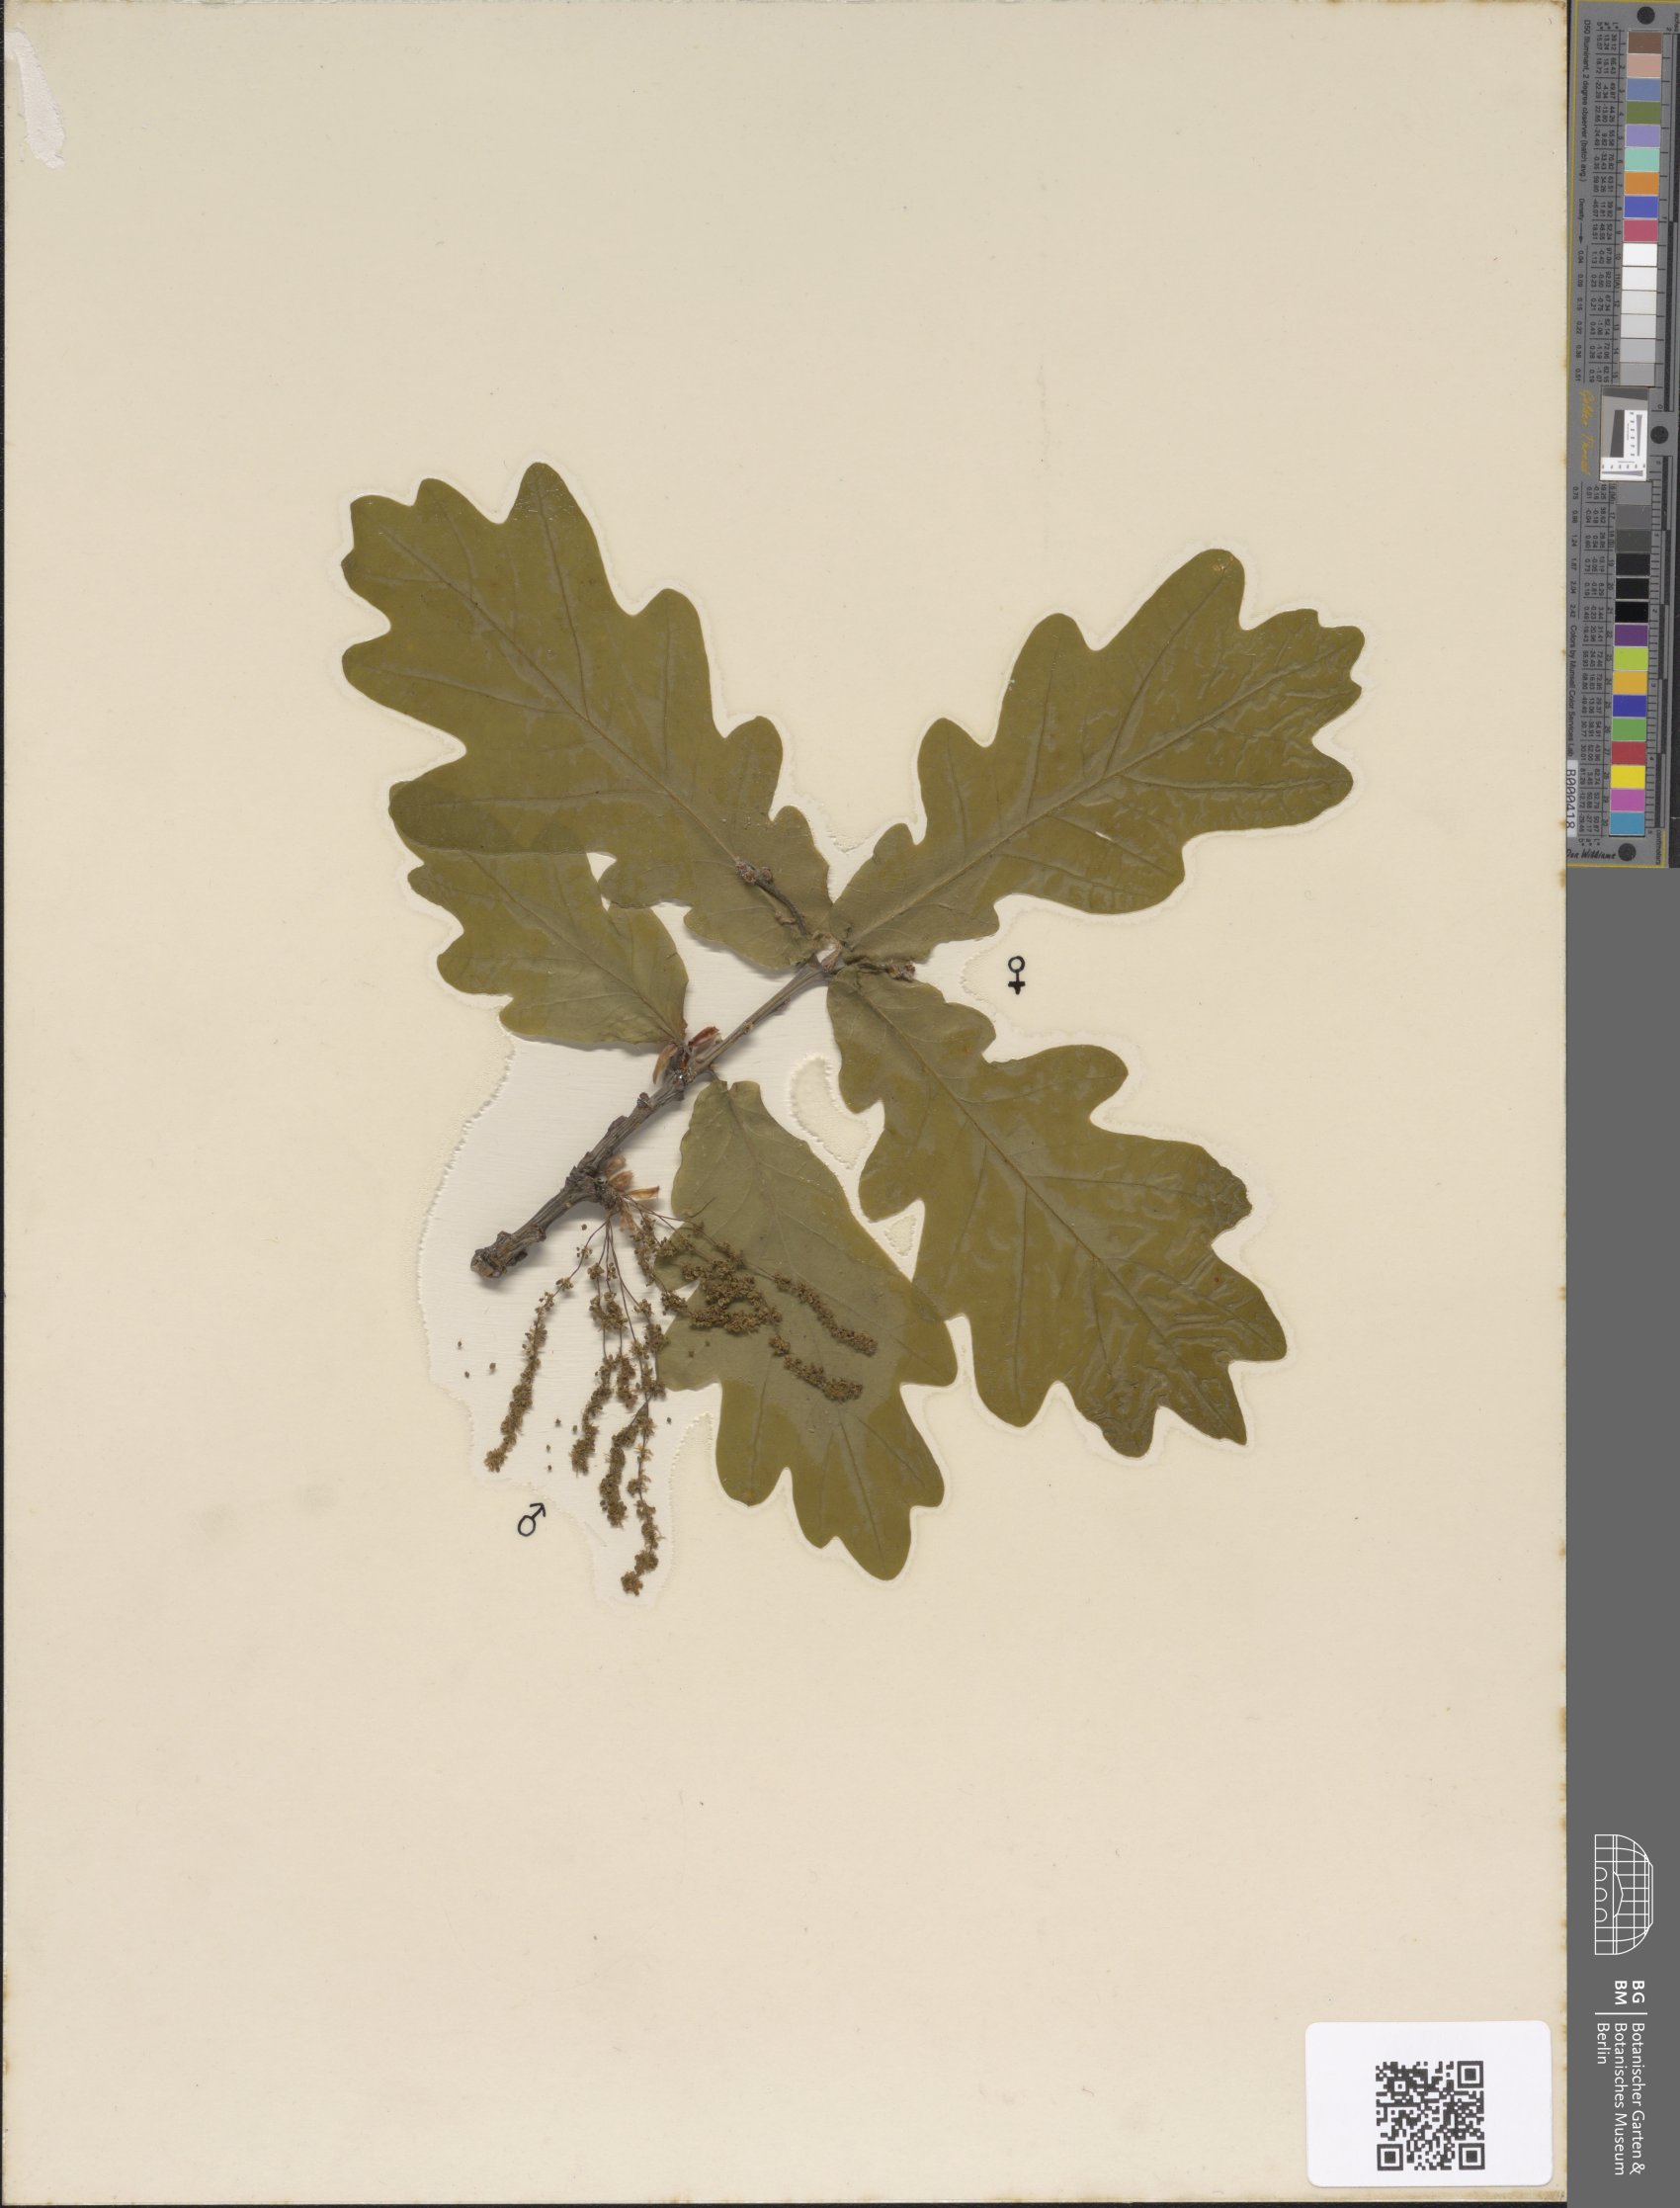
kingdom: Plantae
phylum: Tracheophyta
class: Magnoliopsida
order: Fagales
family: Fagaceae
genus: Quercus
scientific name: Quercus robur
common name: Pedunculate oak
